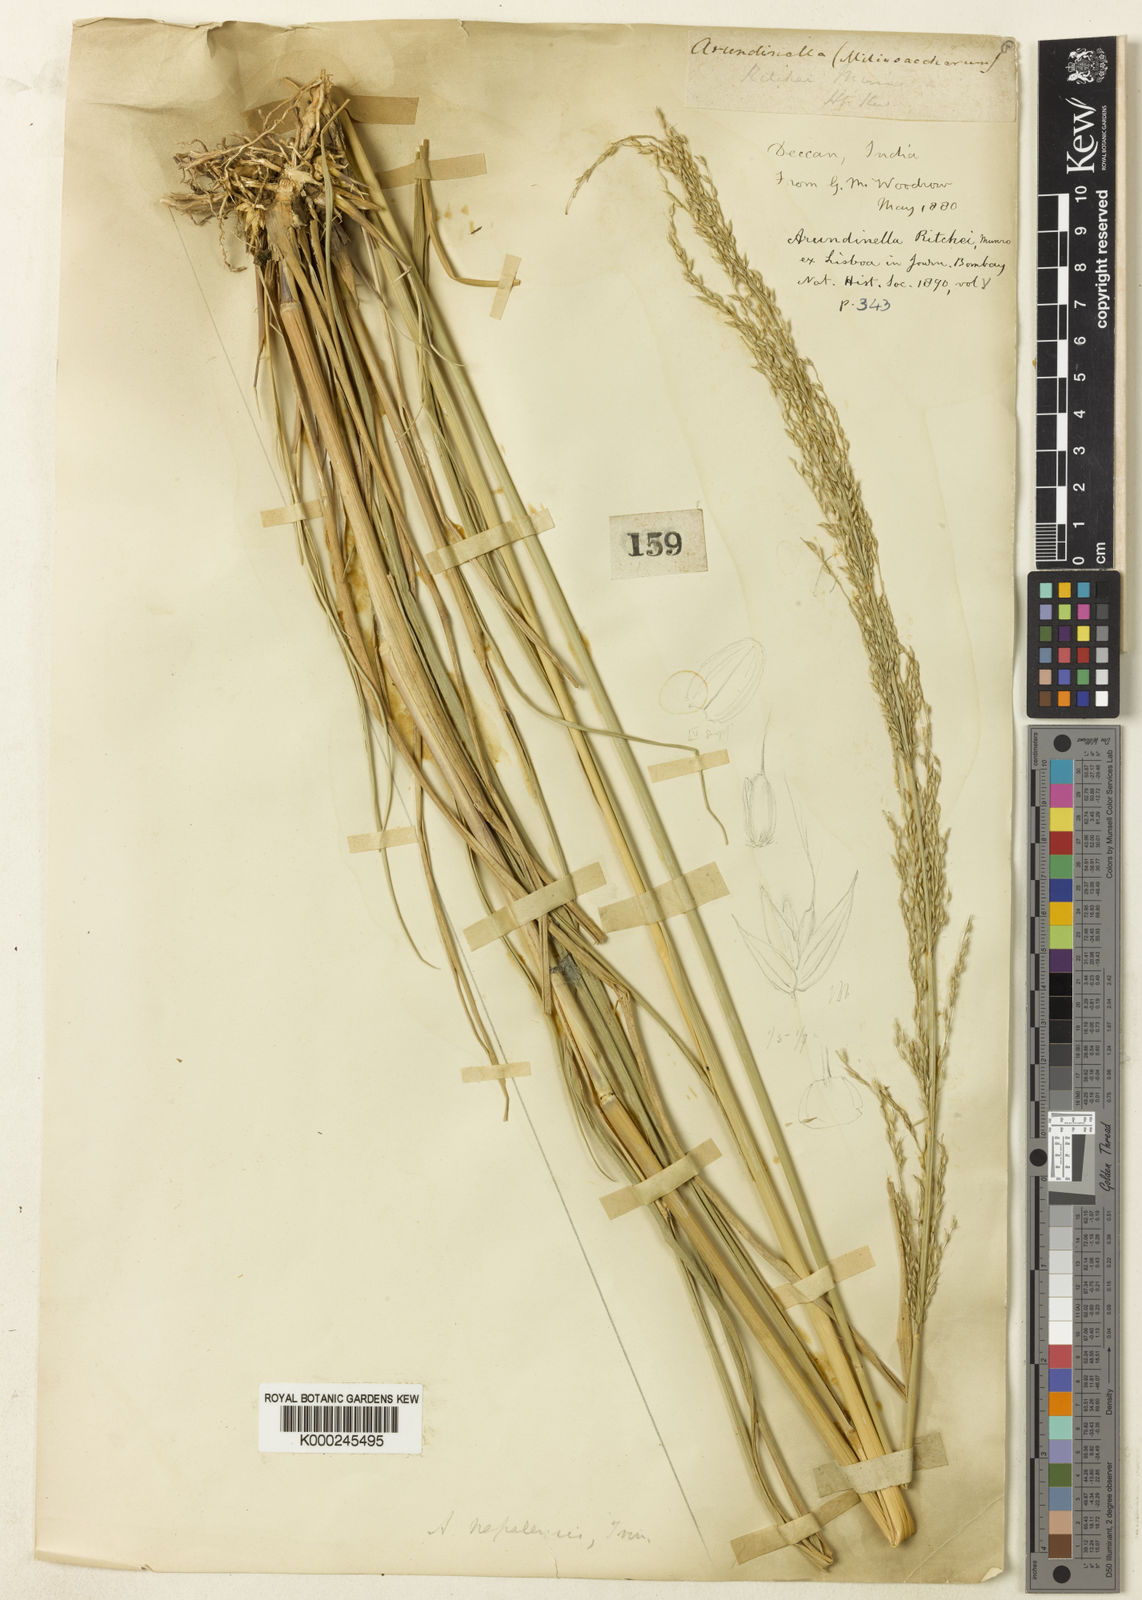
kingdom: Plantae
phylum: Tracheophyta
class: Liliopsida
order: Poales
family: Poaceae
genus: Arundinella
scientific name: Arundinella nepalensis
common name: Reed grass
